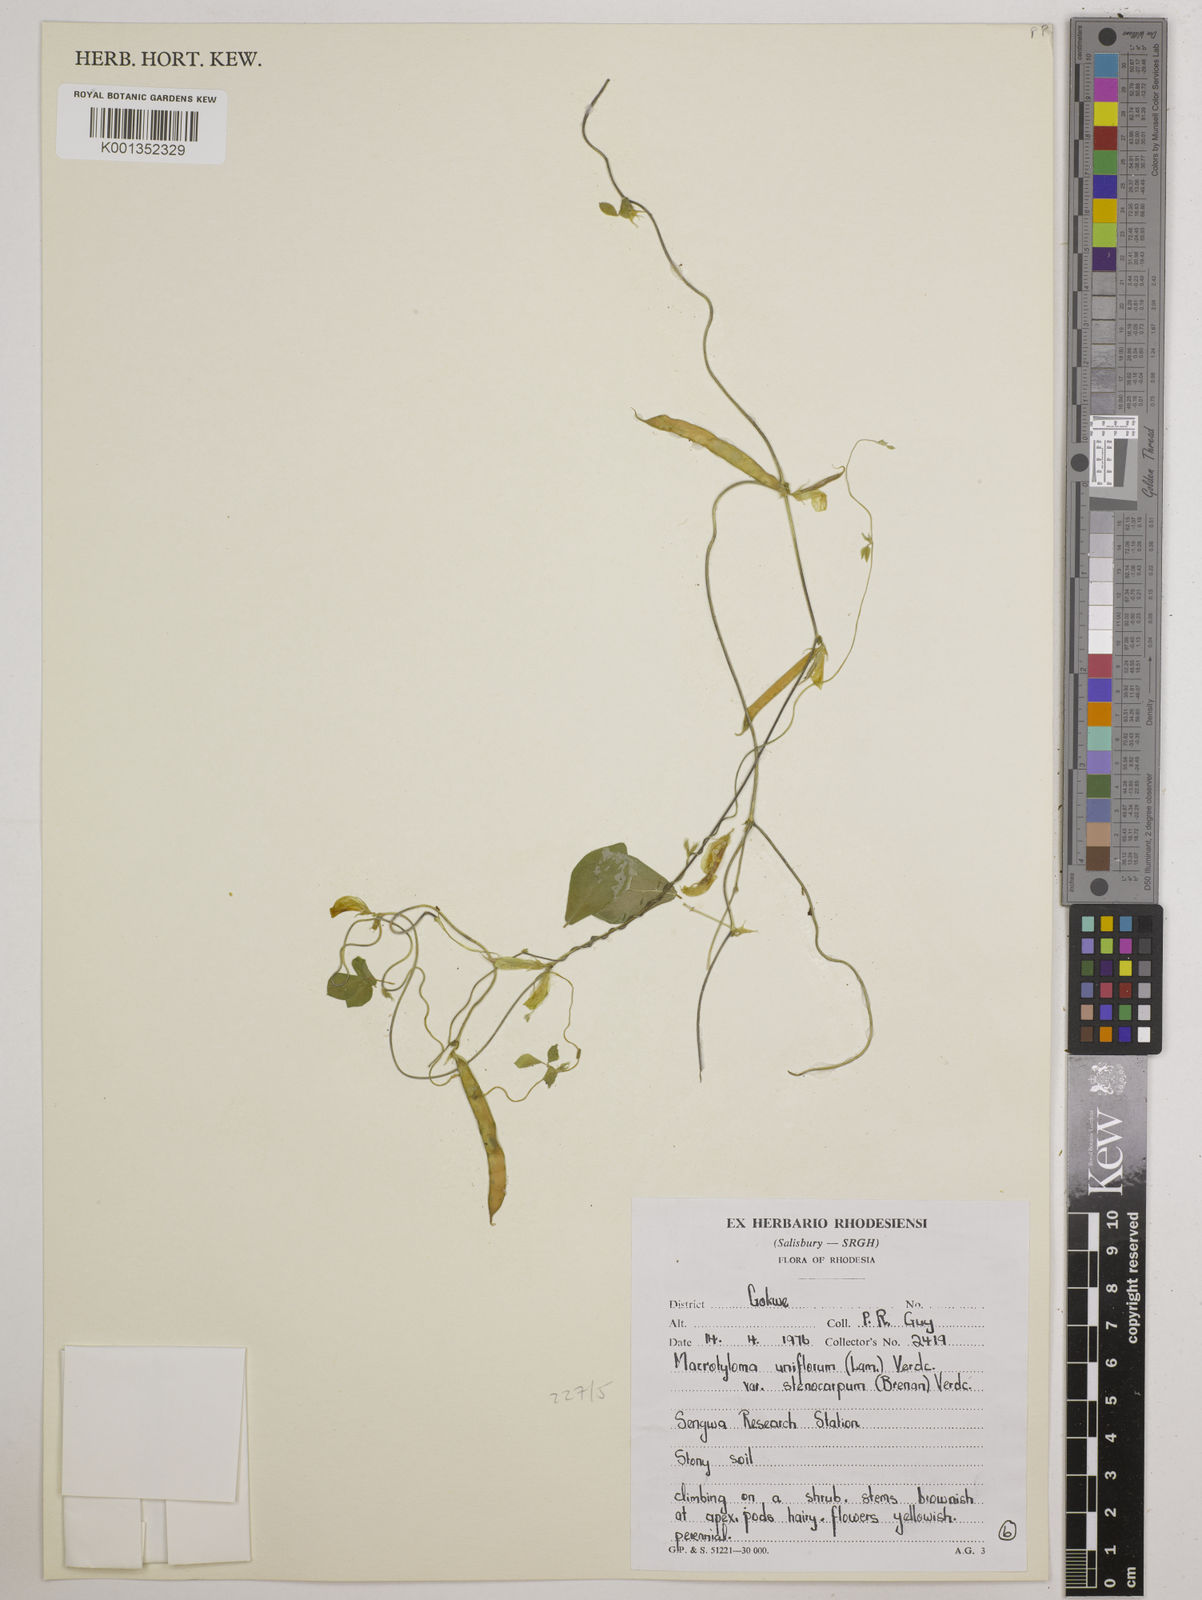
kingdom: Plantae
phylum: Tracheophyta
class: Magnoliopsida
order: Fabales
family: Fabaceae
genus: Macrotyloma
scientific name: Macrotyloma
